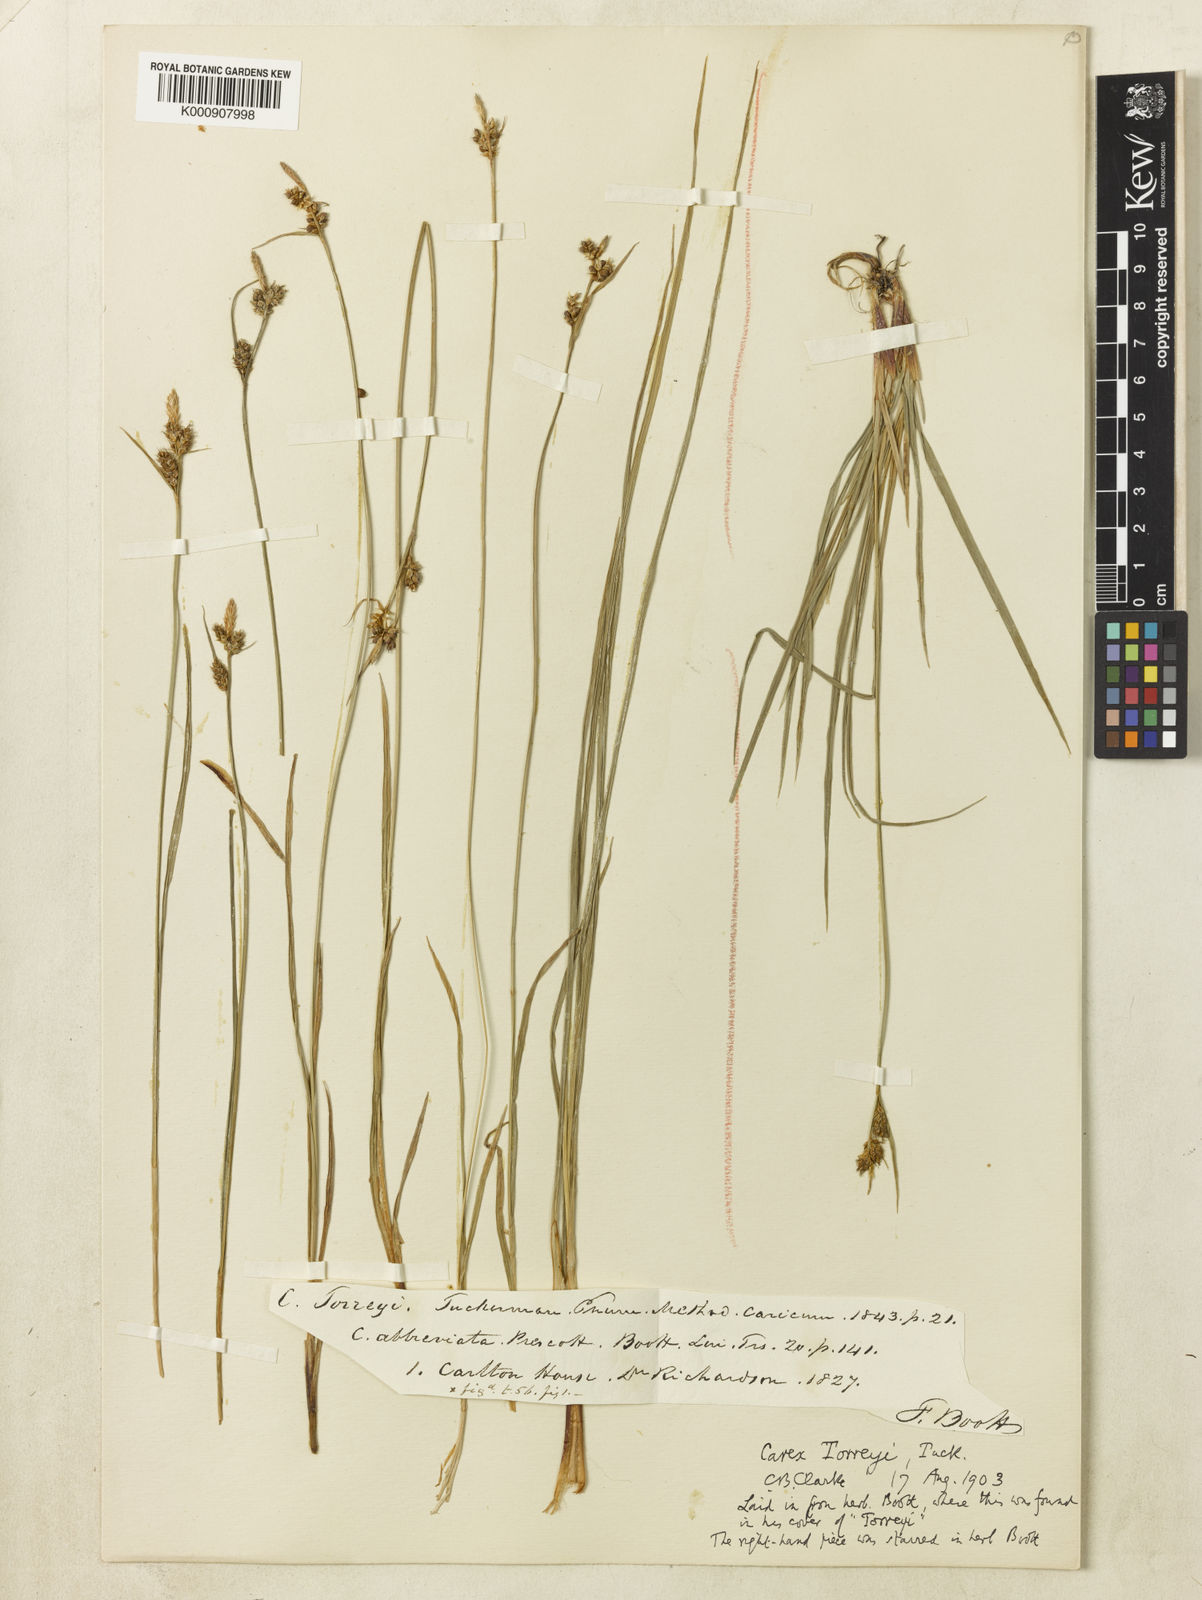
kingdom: Plantae
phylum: Tracheophyta
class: Liliopsida
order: Poales
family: Cyperaceae
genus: Carex
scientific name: Carex torreyi
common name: Torrey's sedge
